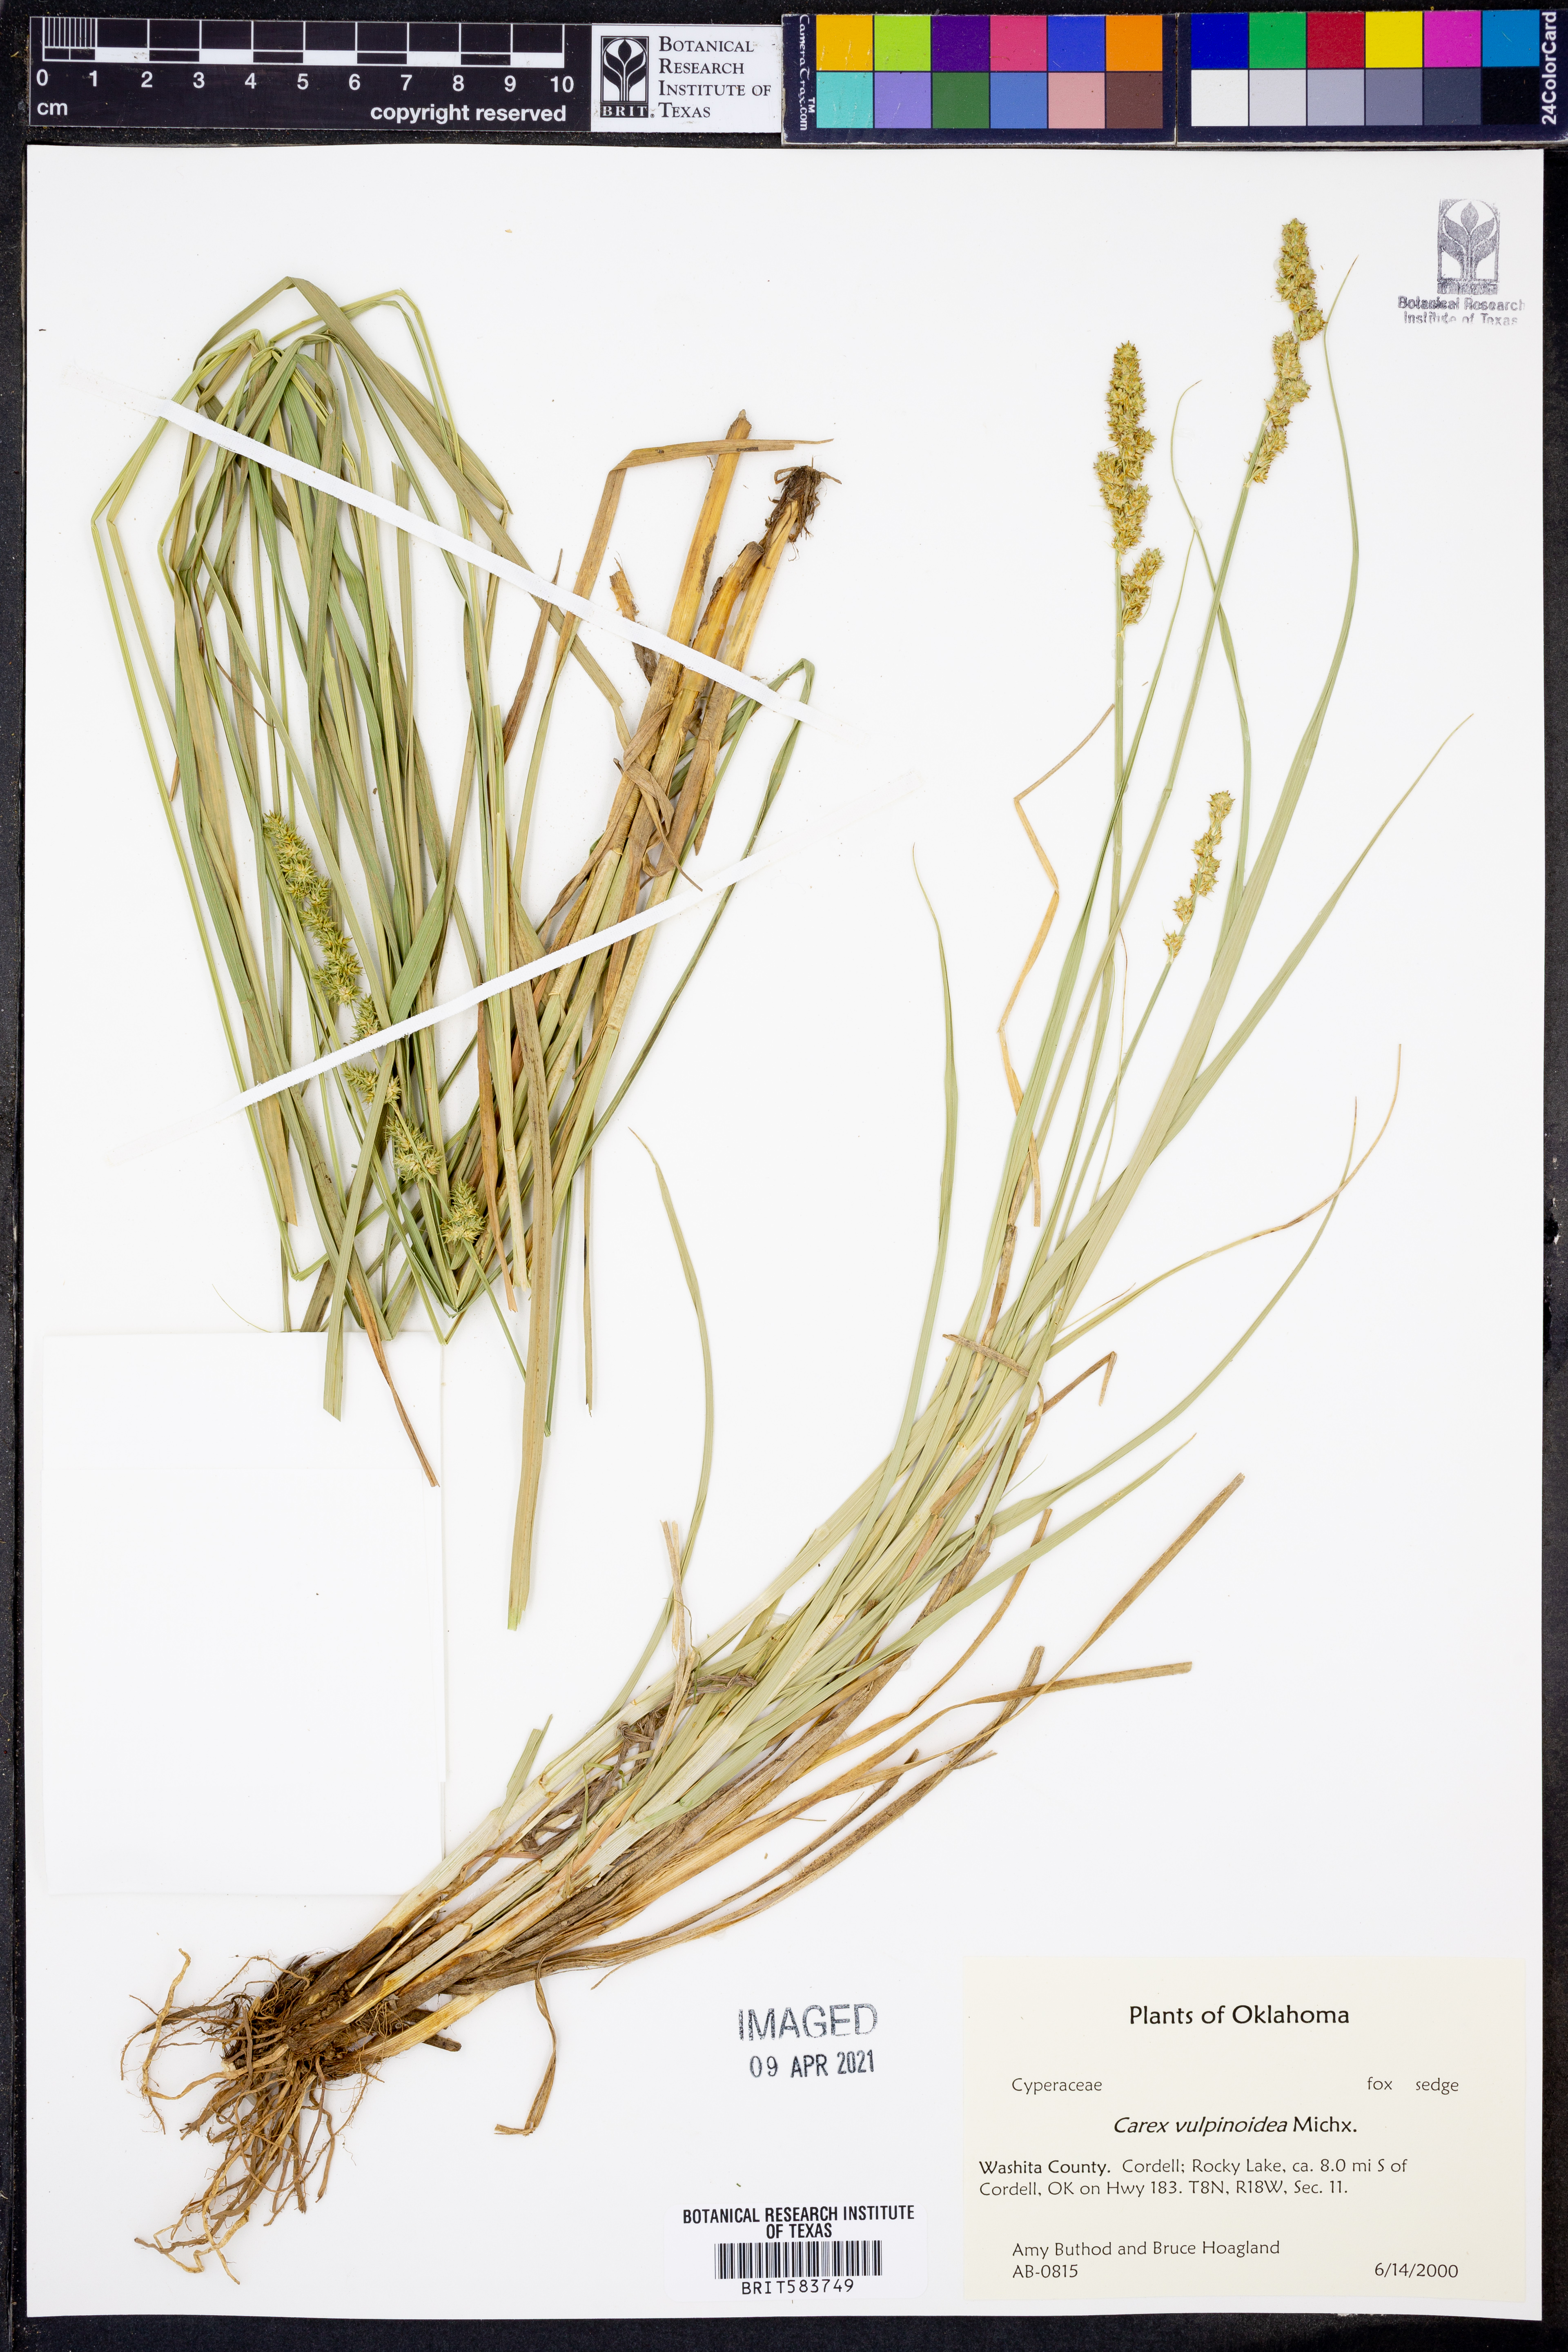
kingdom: Plantae
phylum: Tracheophyta
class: Liliopsida
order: Poales
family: Cyperaceae
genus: Carex
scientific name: Carex vulpinoidea
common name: American fox-sedge
